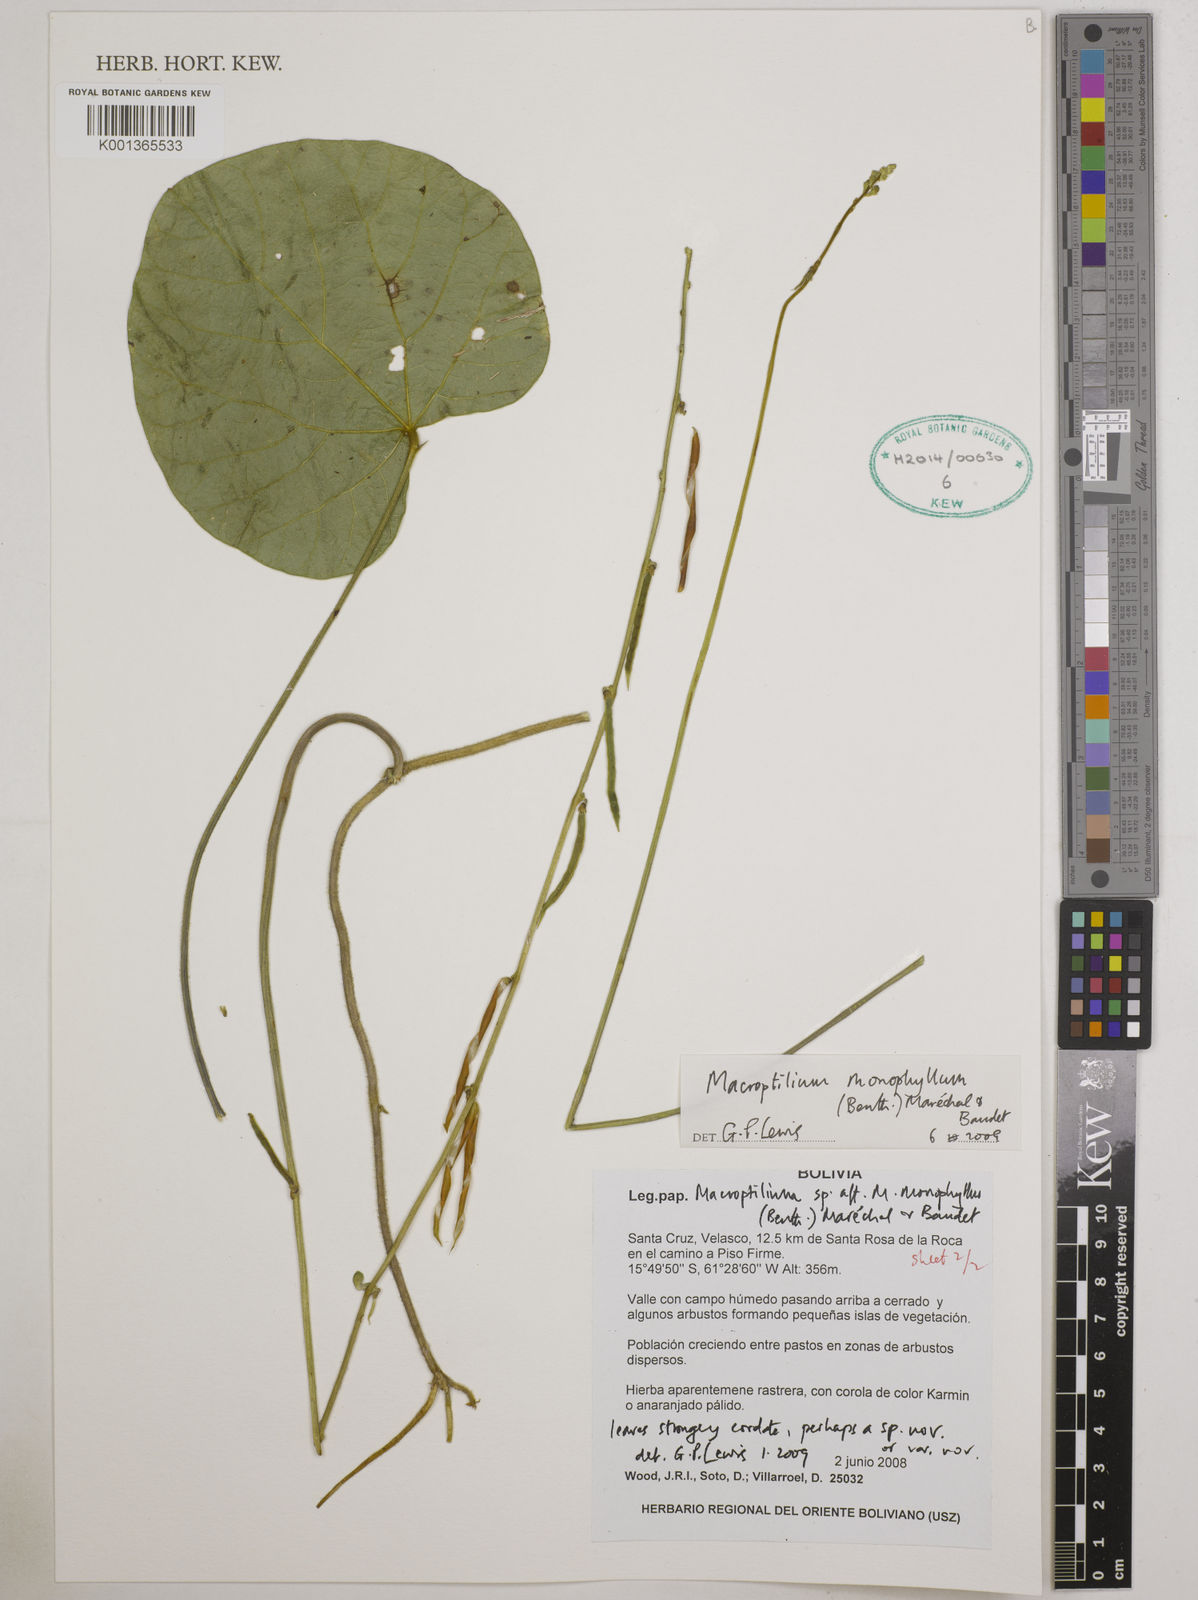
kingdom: Plantae
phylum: Tracheophyta
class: Magnoliopsida
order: Fabales
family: Fabaceae
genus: Macroptilium
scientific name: Macroptilium monophyllum
